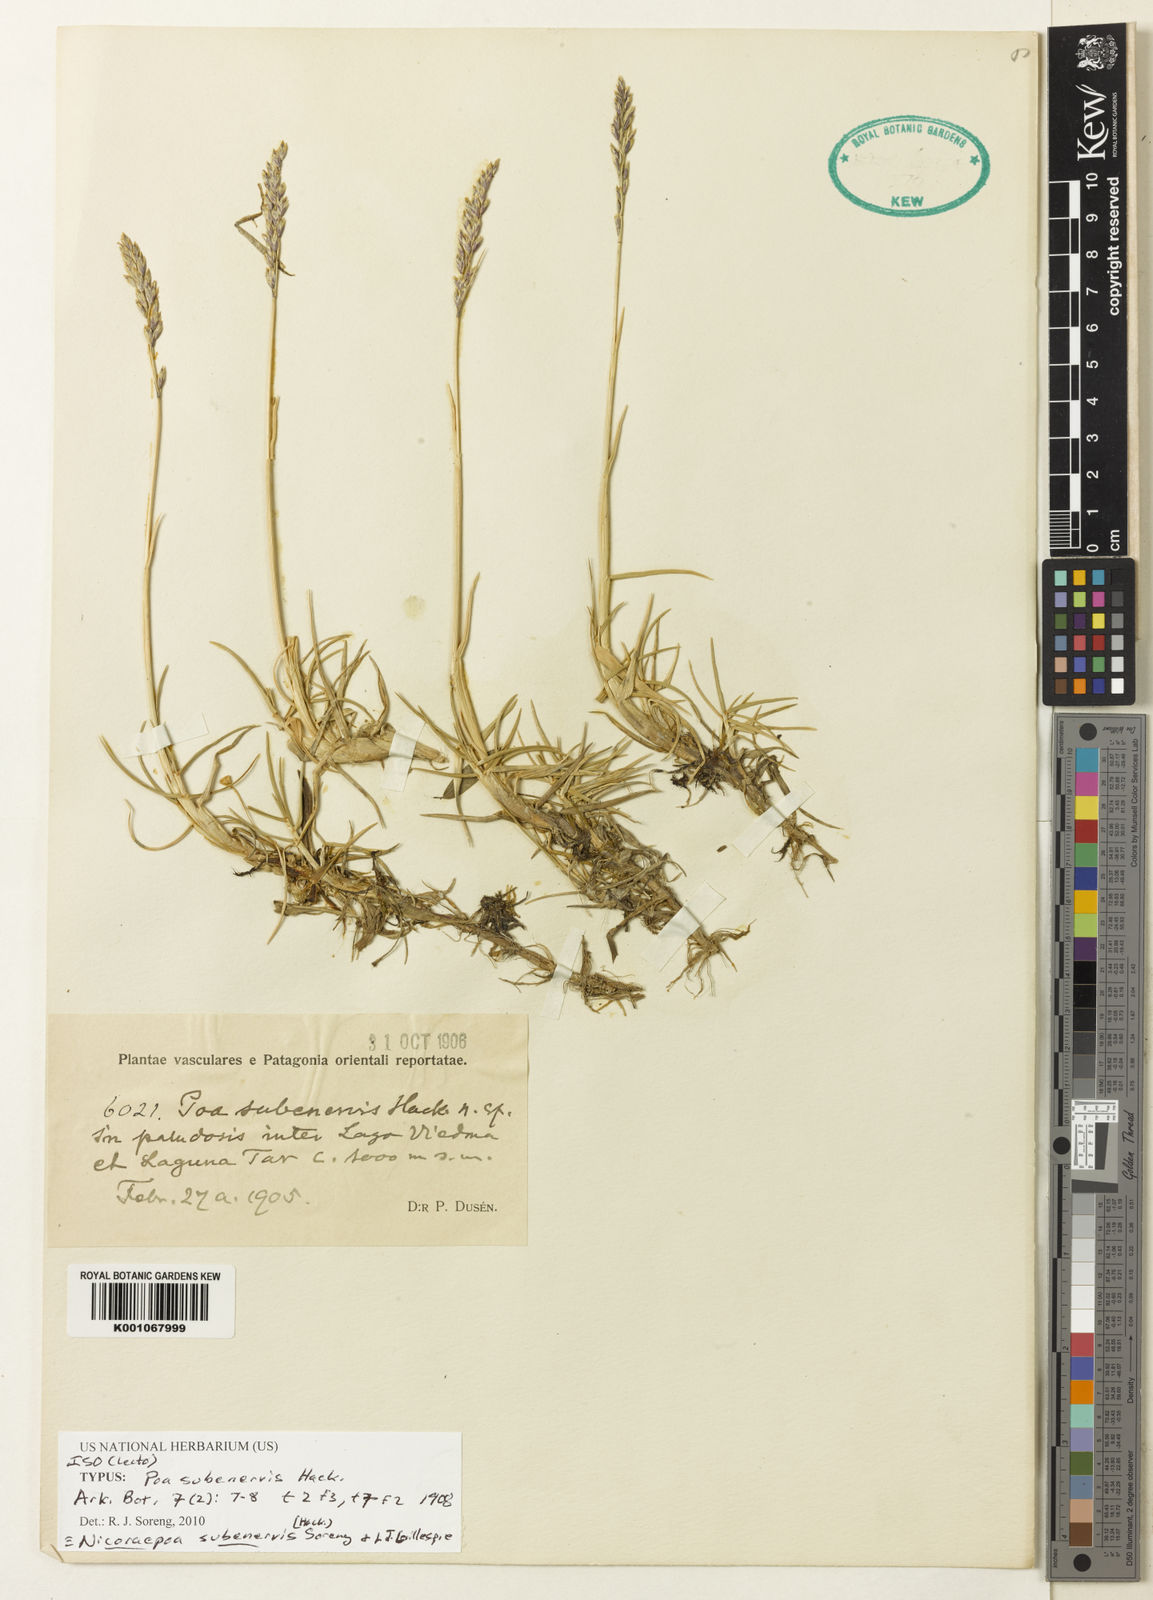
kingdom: Plantae
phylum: Tracheophyta
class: Liliopsida
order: Poales
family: Poaceae
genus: Nicoraepoa
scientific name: Nicoraepoa subenervis
